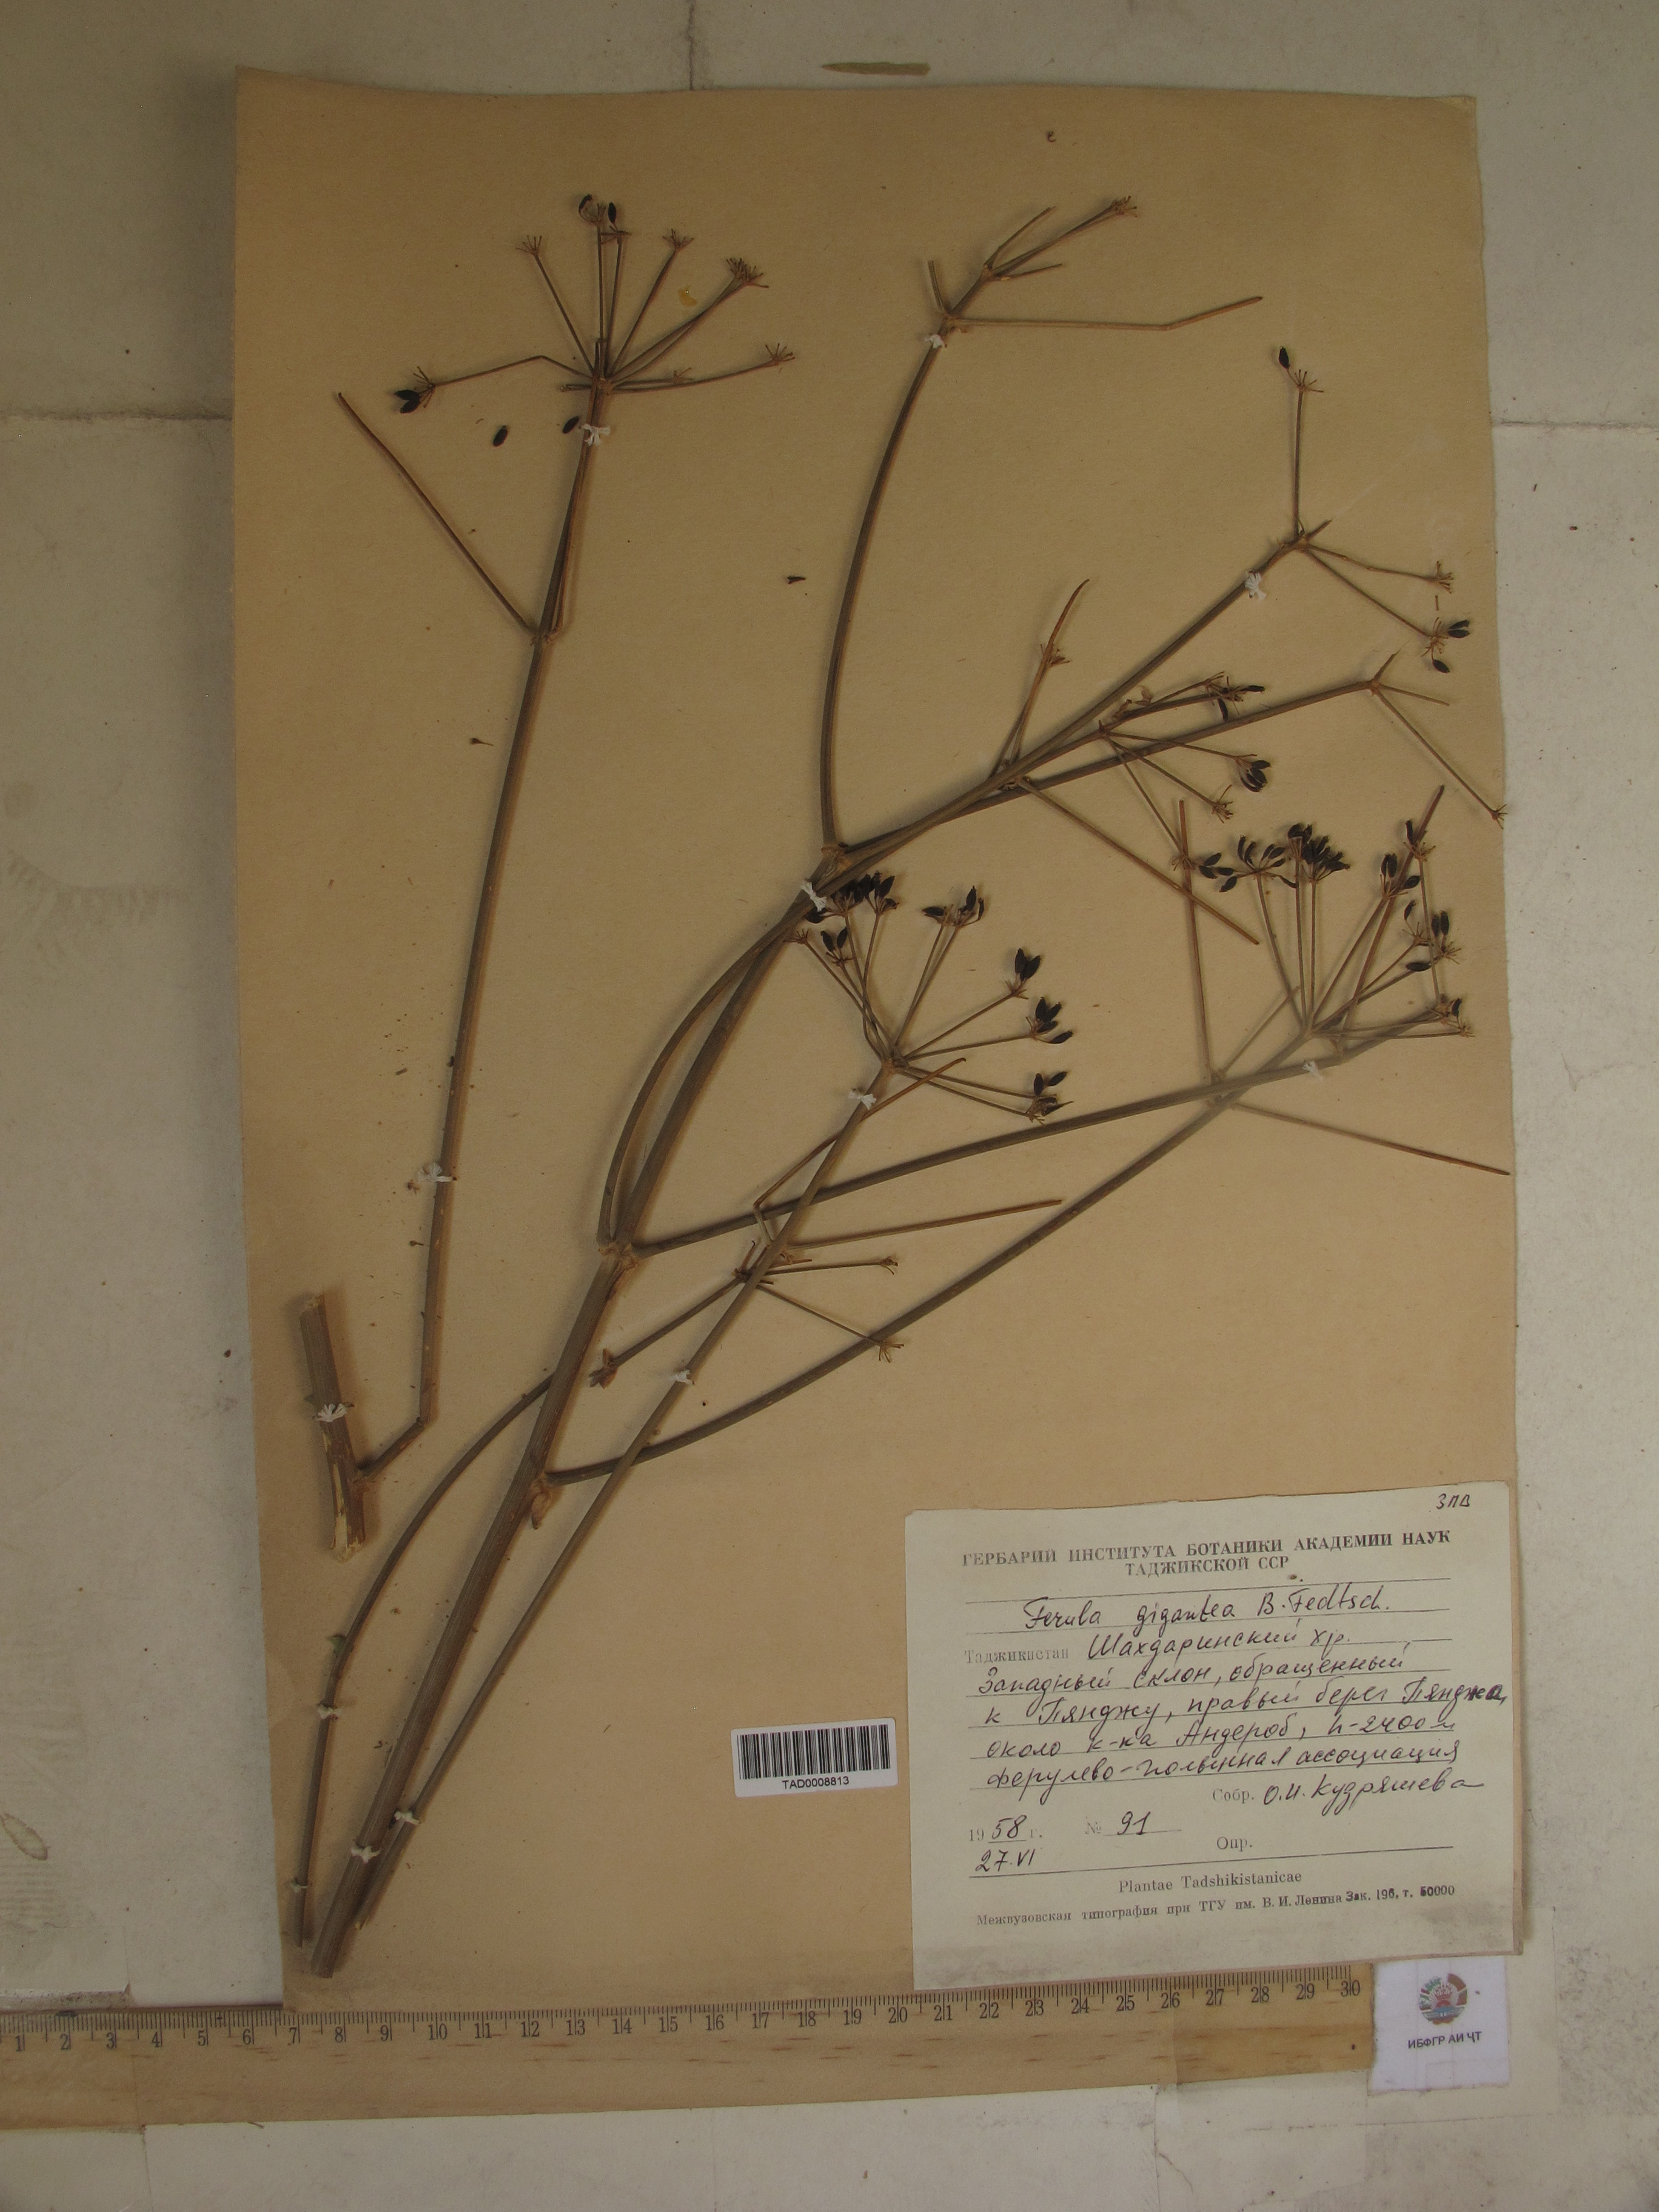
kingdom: Plantae
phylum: Tracheophyta
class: Magnoliopsida
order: Apiales
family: Apiaceae
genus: Ferula
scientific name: Ferula gigantea
